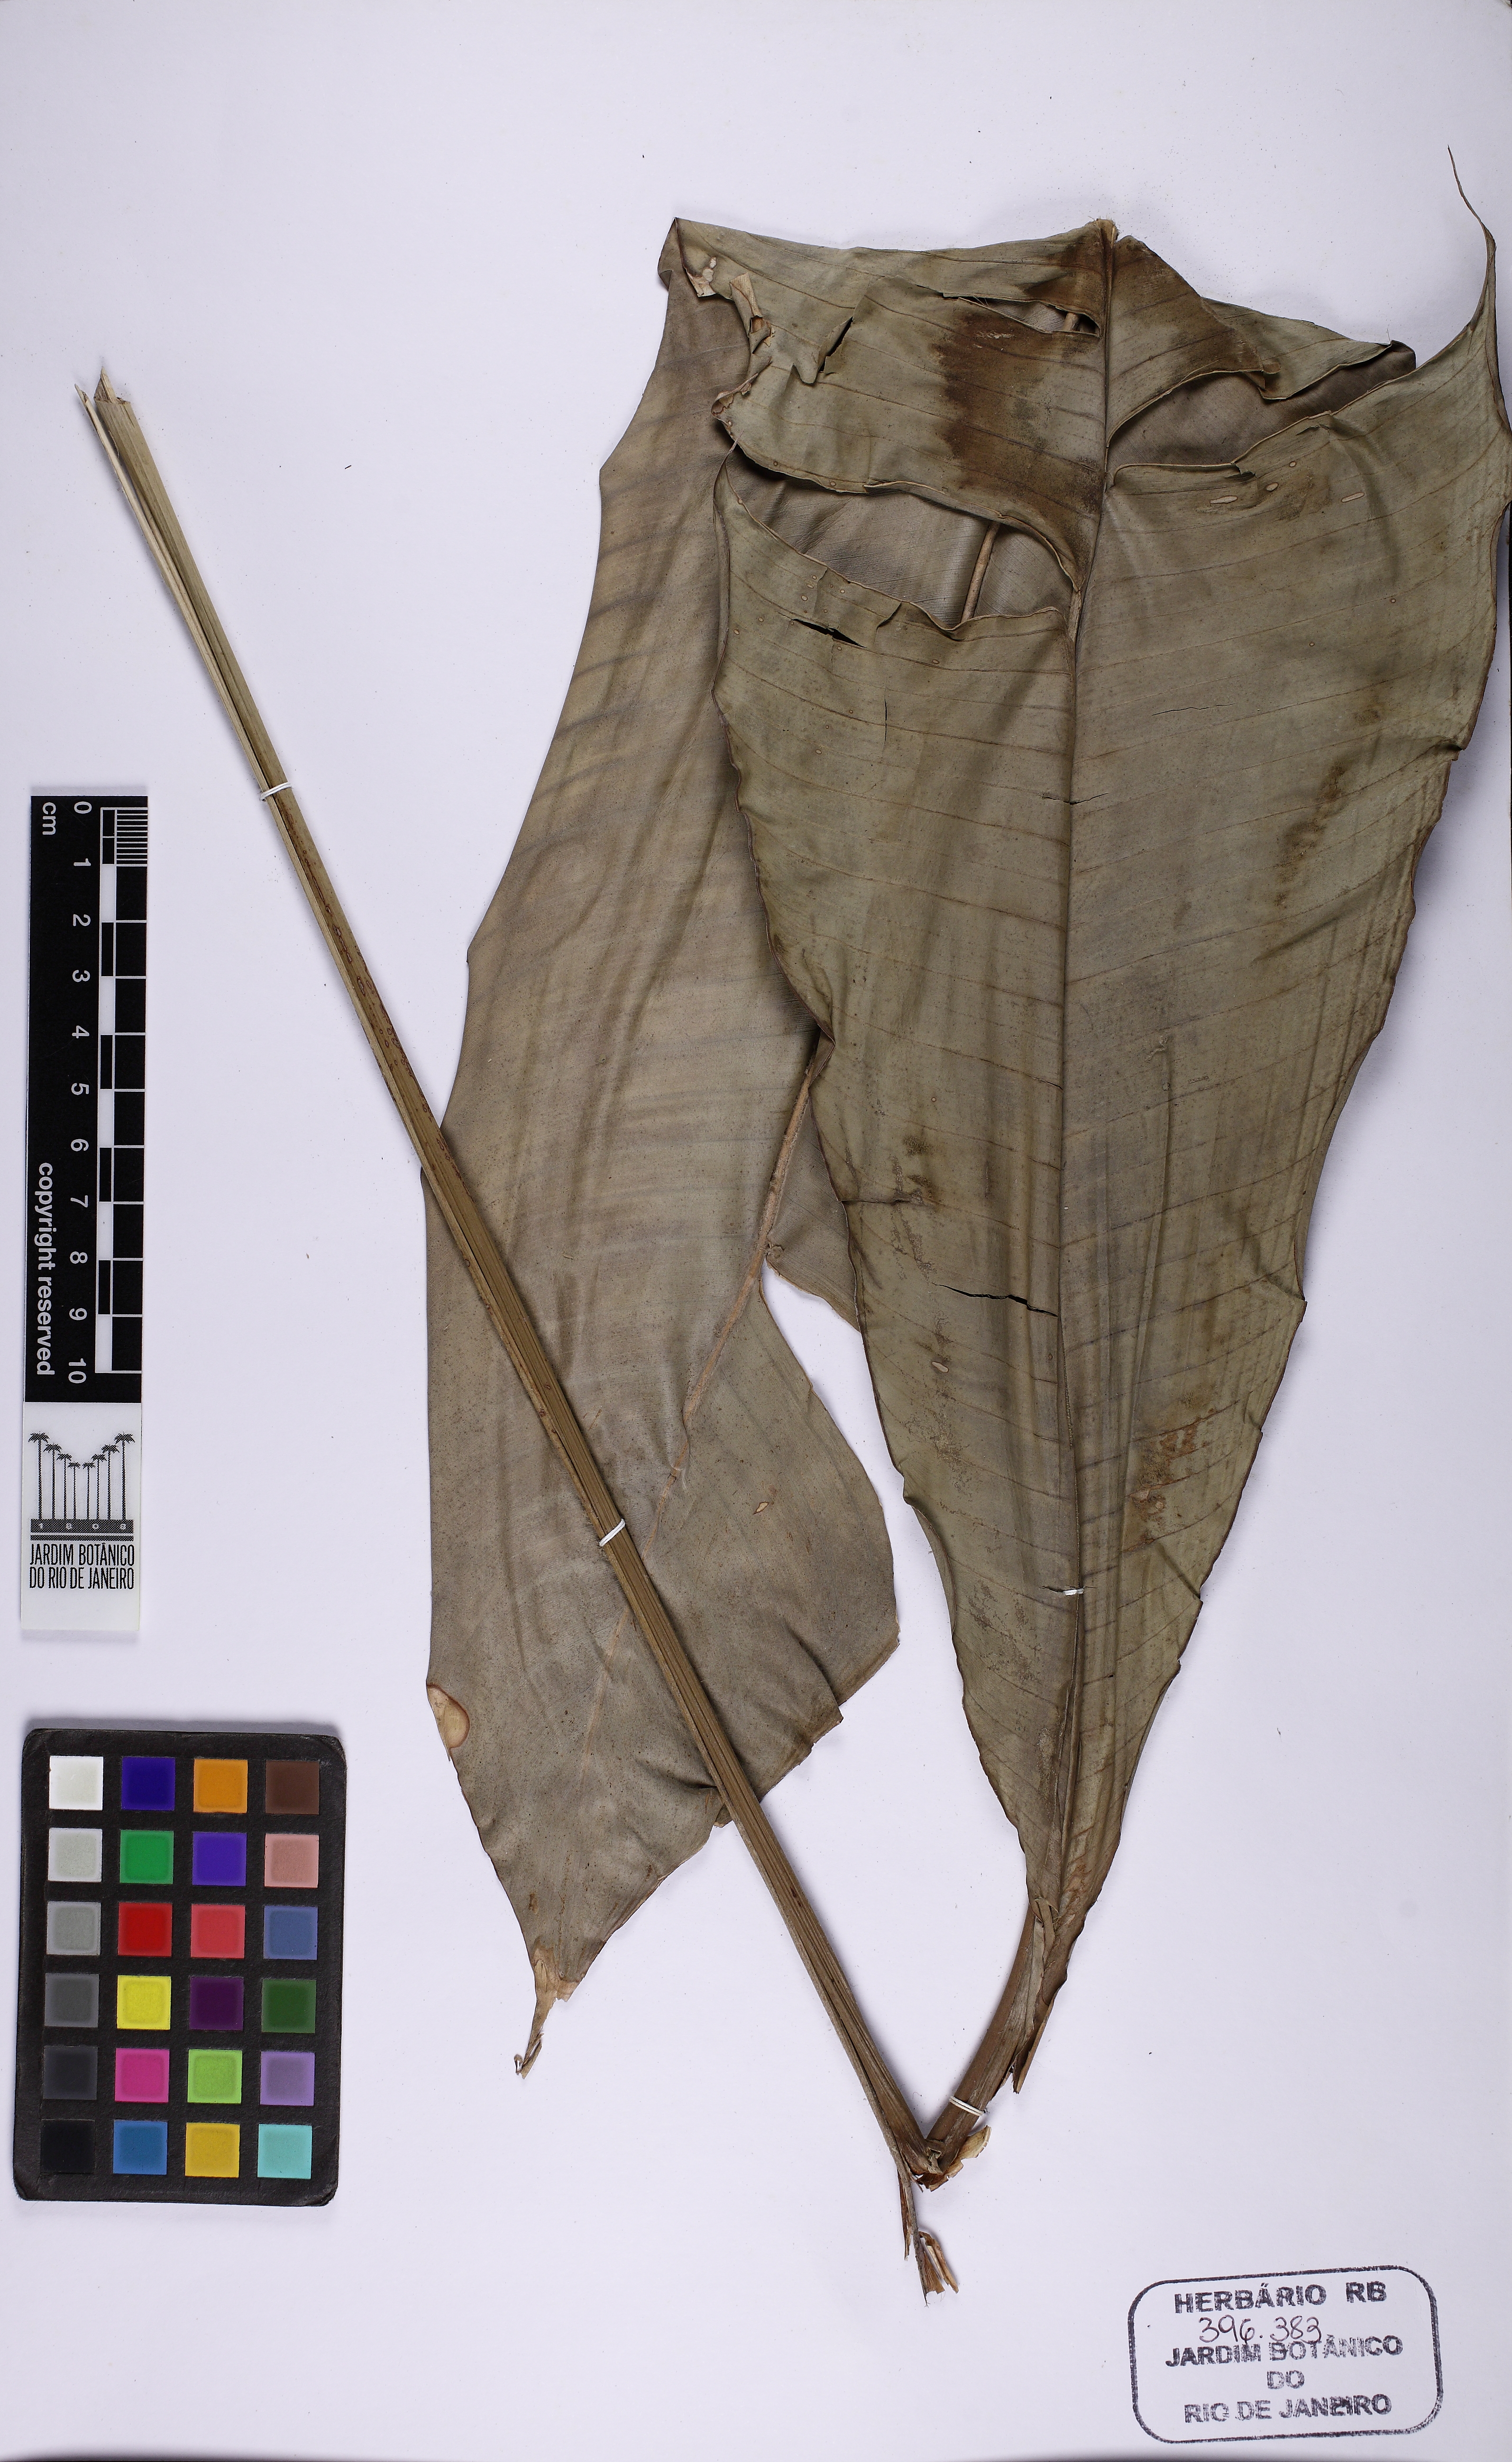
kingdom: Plantae
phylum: Tracheophyta
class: Liliopsida
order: Zingiberales
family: Heliconiaceae
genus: Heliconia
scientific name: Heliconia metallica
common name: Shining bird of paradise
